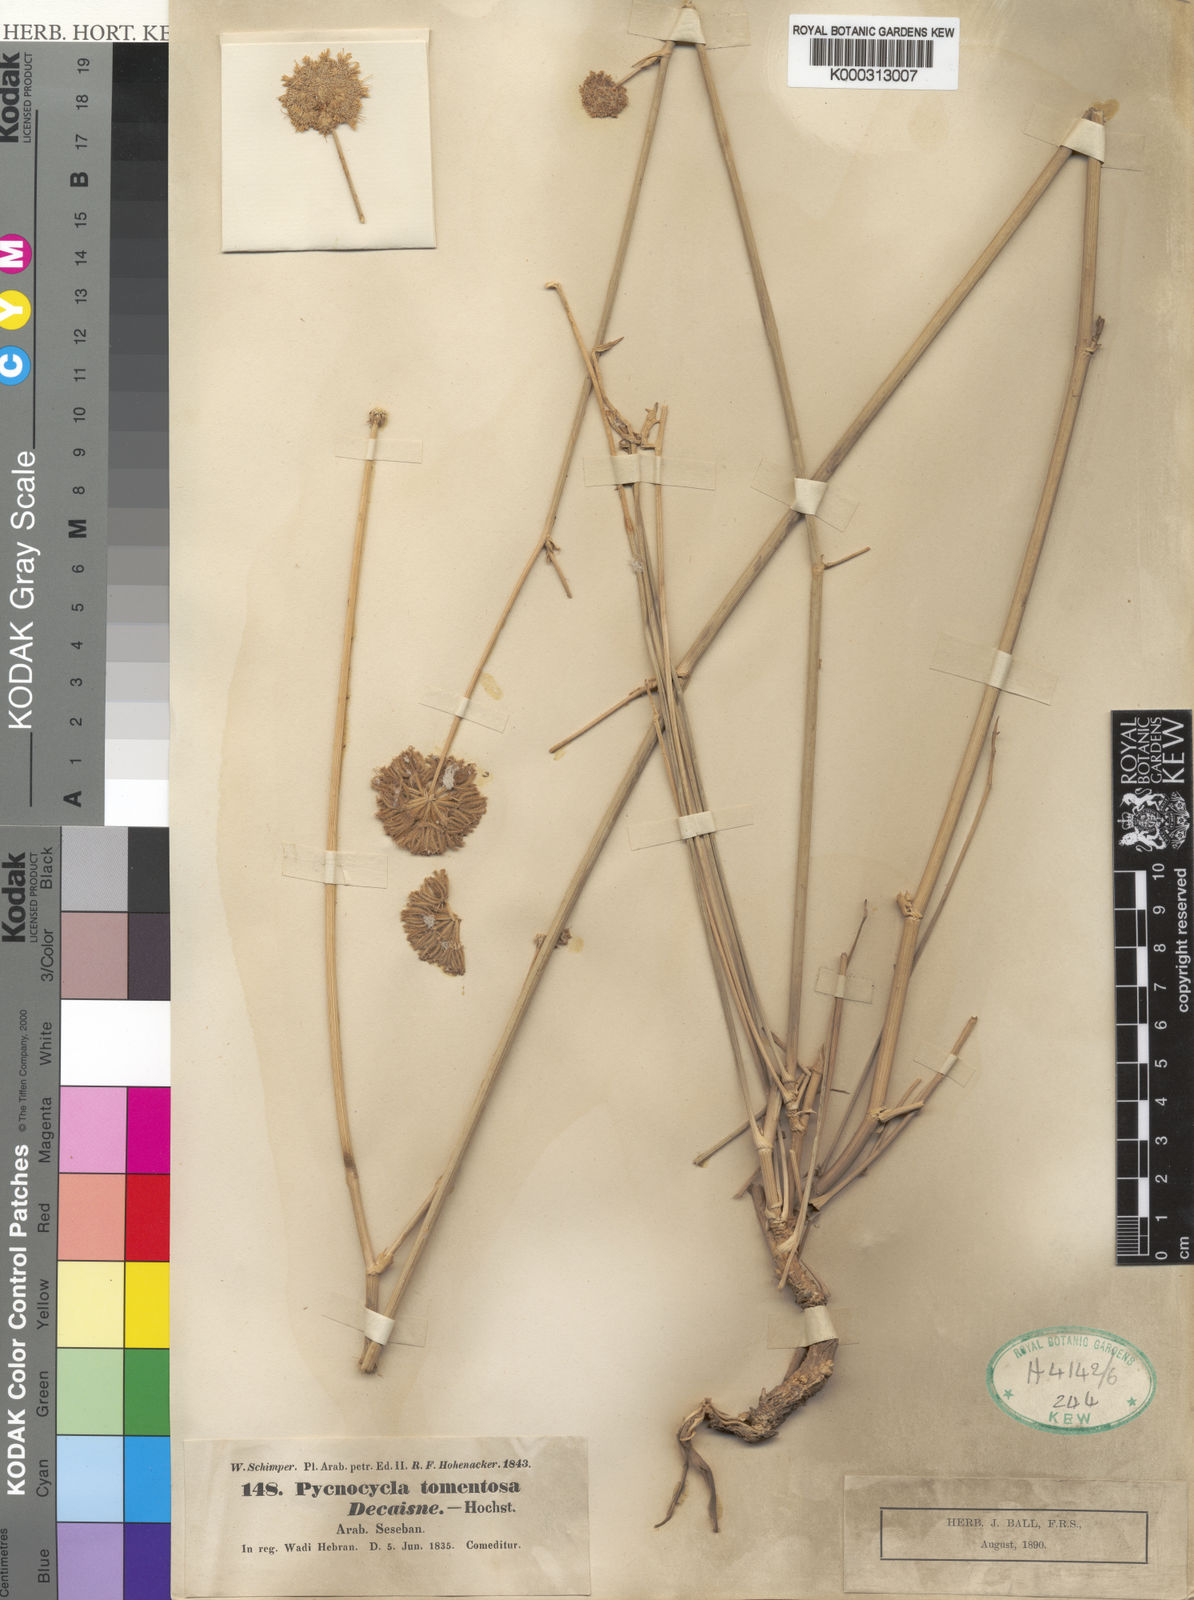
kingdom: Plantae
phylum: Tracheophyta
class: Magnoliopsida
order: Apiales
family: Apiaceae
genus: Pycnocycla
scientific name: Pycnocycla tomentosa
